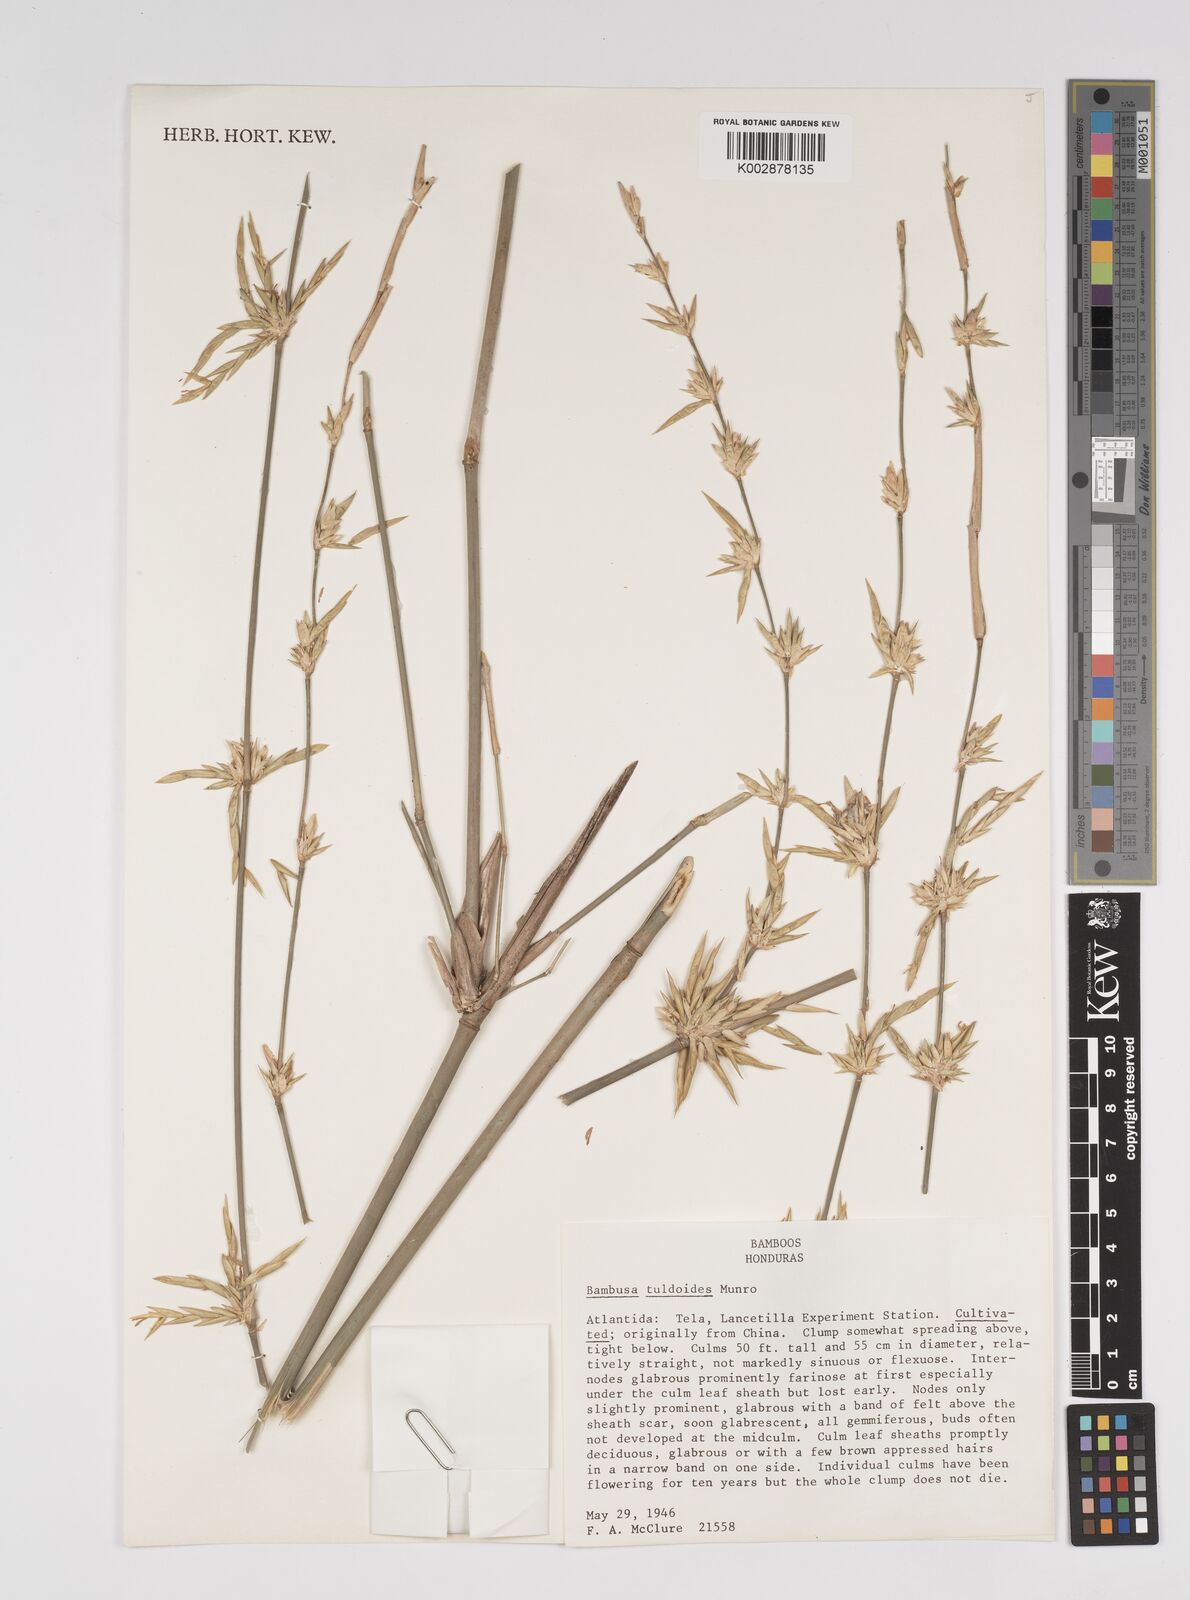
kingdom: Plantae
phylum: Tracheophyta
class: Liliopsida
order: Poales
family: Poaceae
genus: Bambusa
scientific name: Bambusa tuldoides
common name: Verdant bamboo
